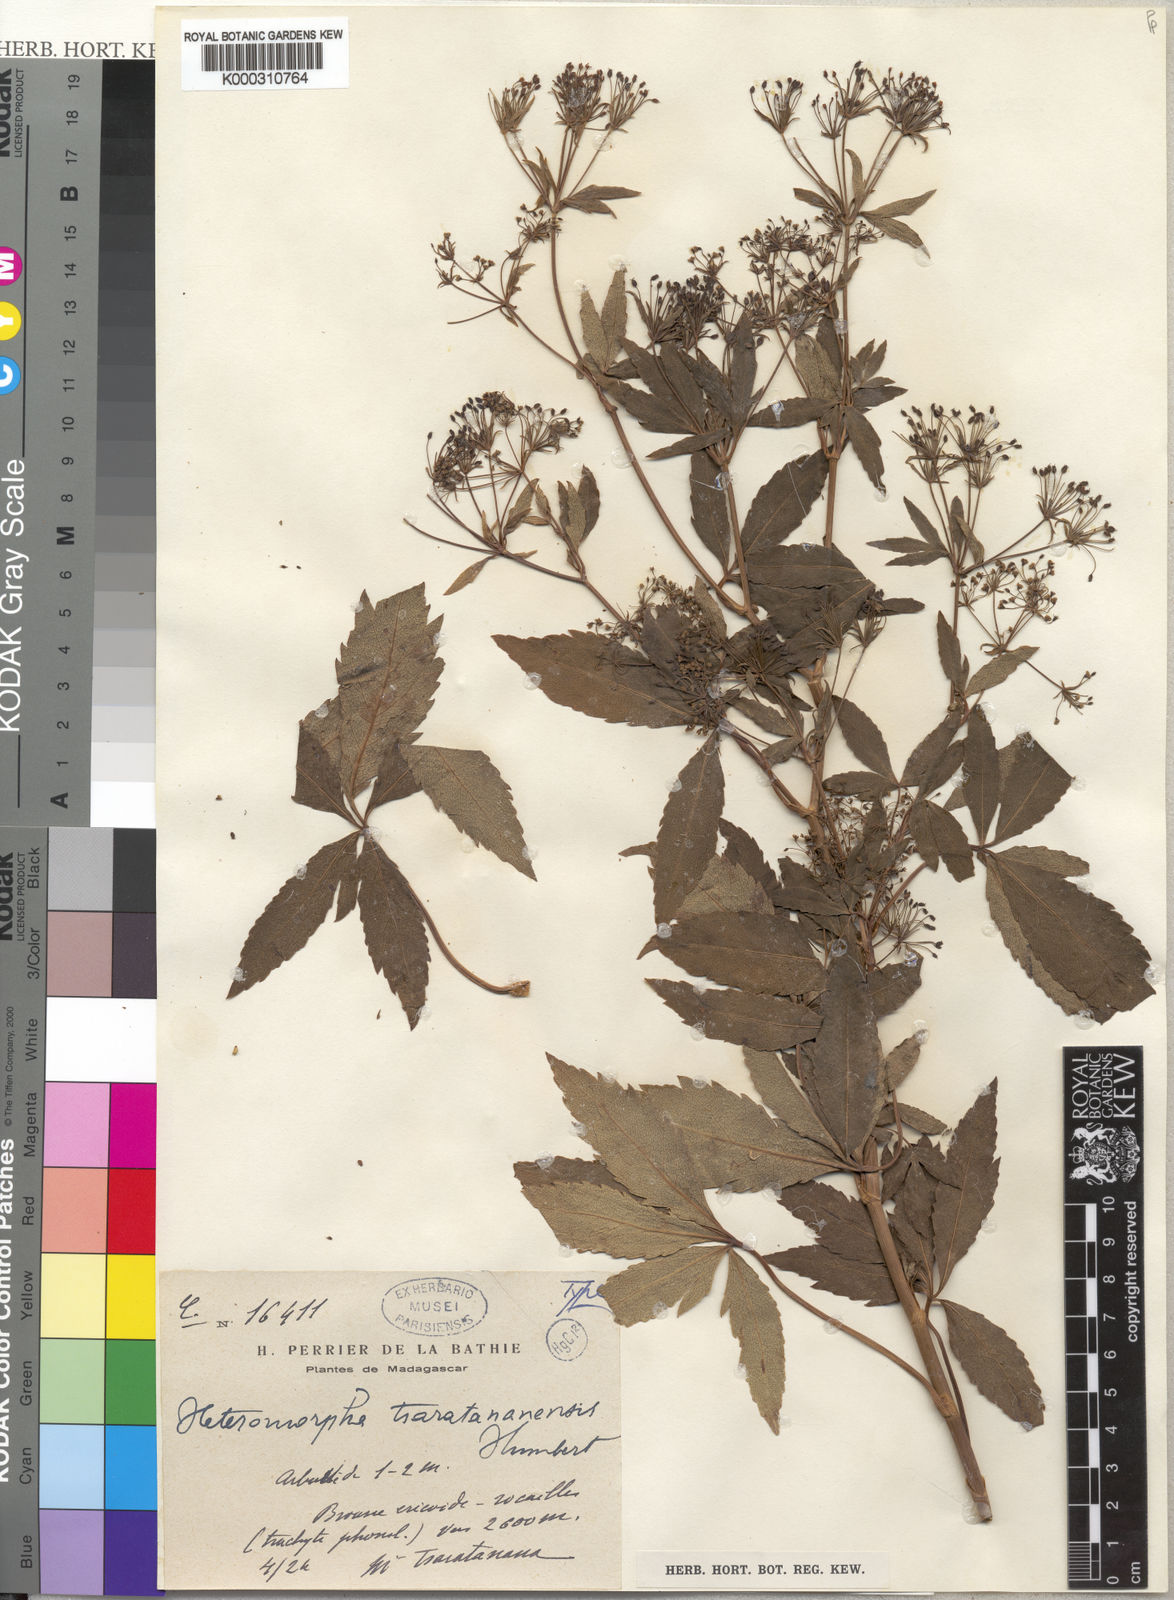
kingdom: Plantae
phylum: Tracheophyta
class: Magnoliopsida
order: Apiales
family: Apiaceae
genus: Andriana
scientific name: Andriana coursii
